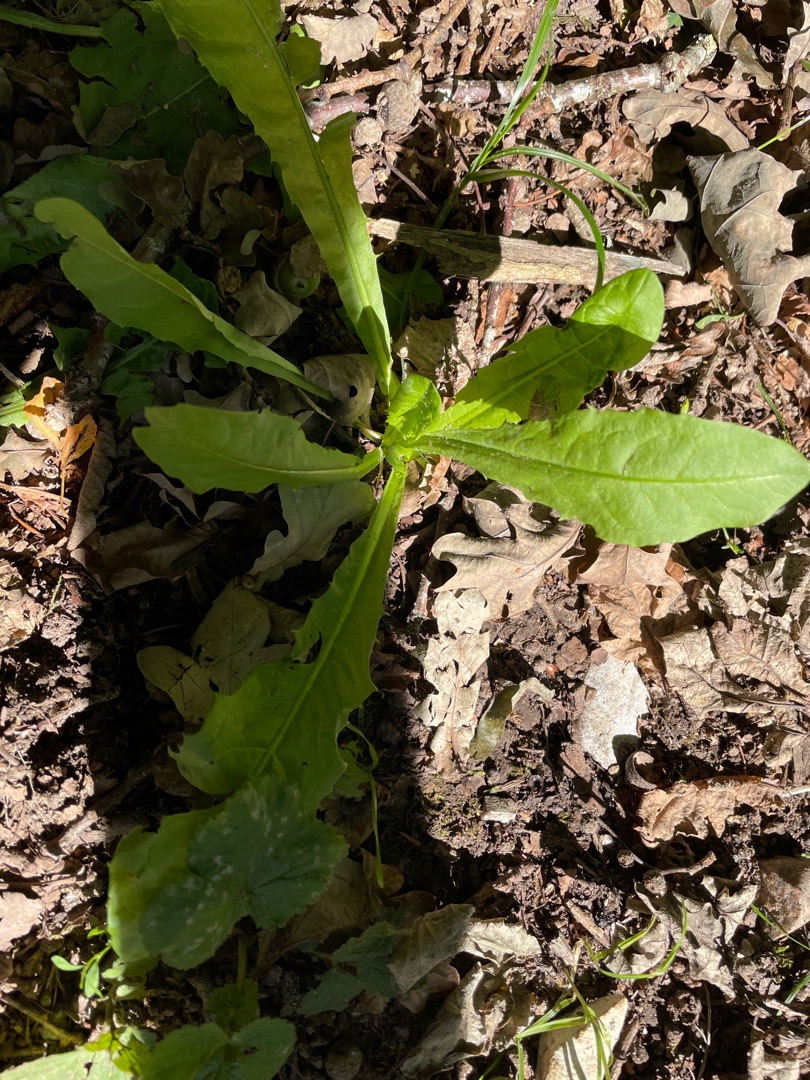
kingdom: Plantae
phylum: Tracheophyta
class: Magnoliopsida
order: Asterales
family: Asteraceae
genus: Taraxacum
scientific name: Taraxacum
